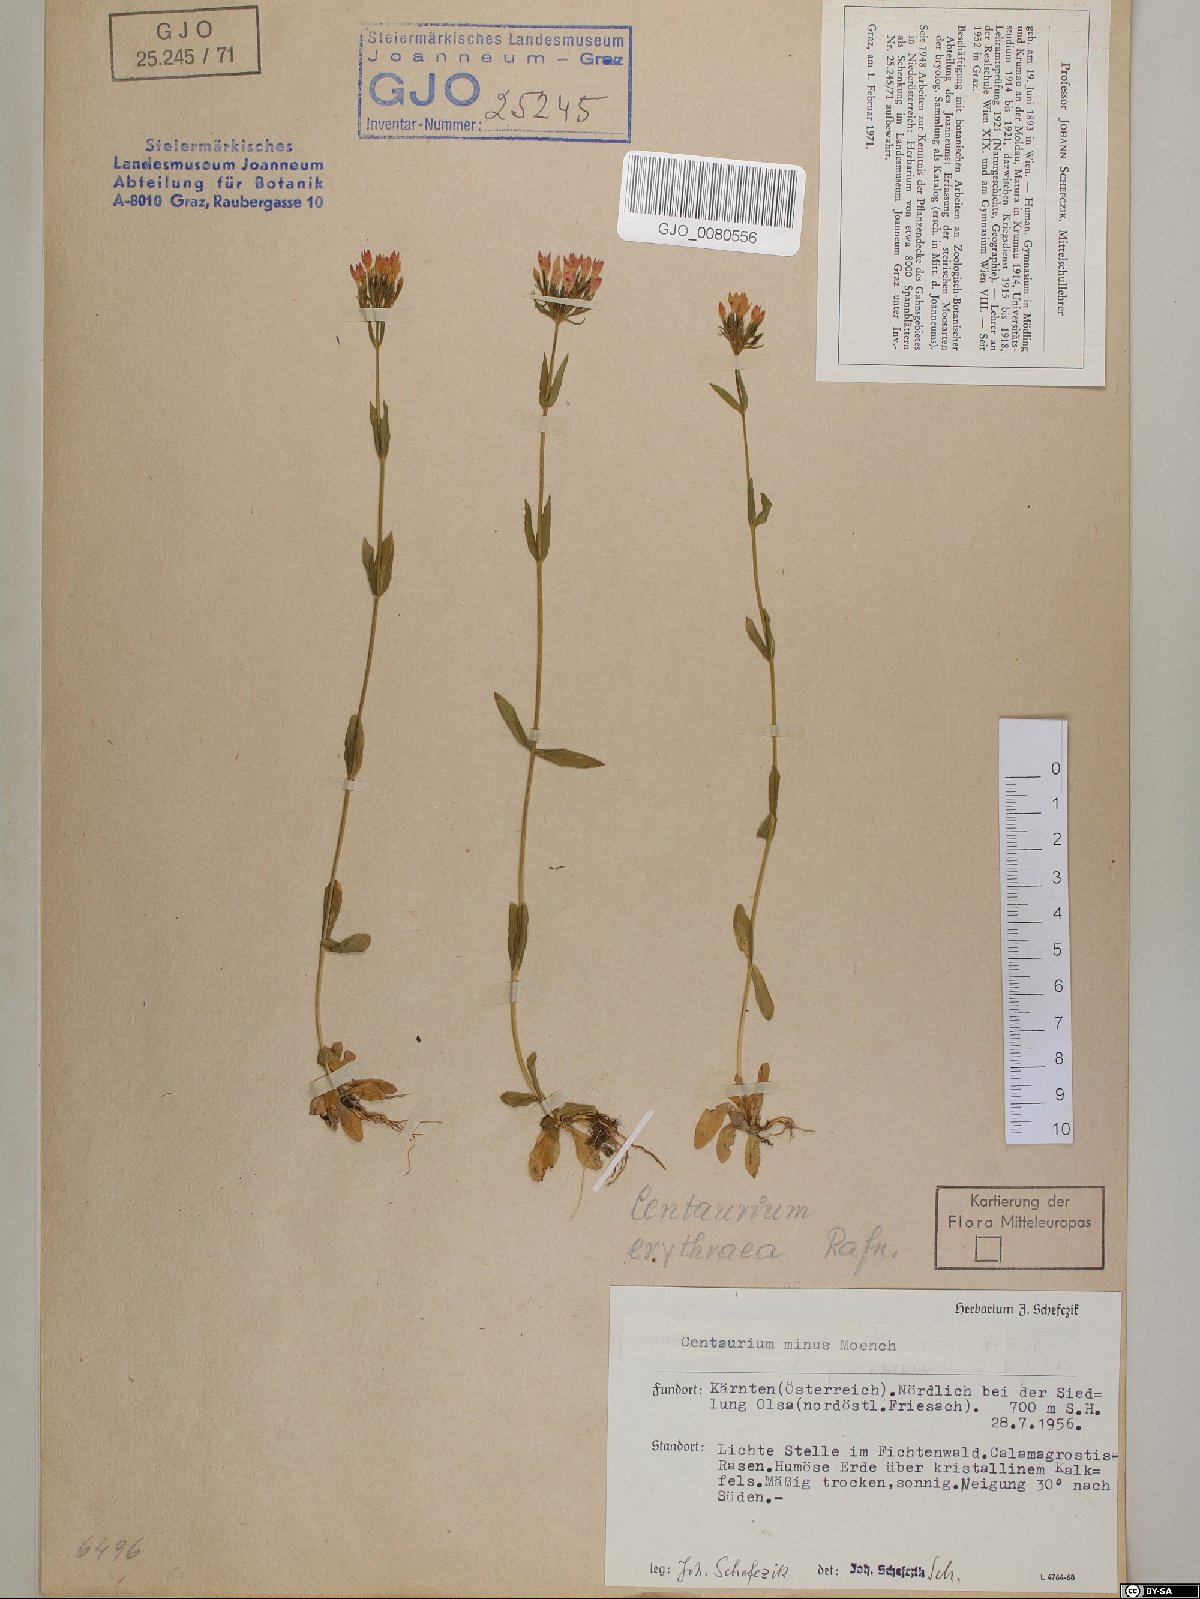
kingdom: Plantae
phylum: Tracheophyta
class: Magnoliopsida
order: Gentianales
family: Gentianaceae
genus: Centaurium
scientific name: Centaurium erythraea
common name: Common centaury
